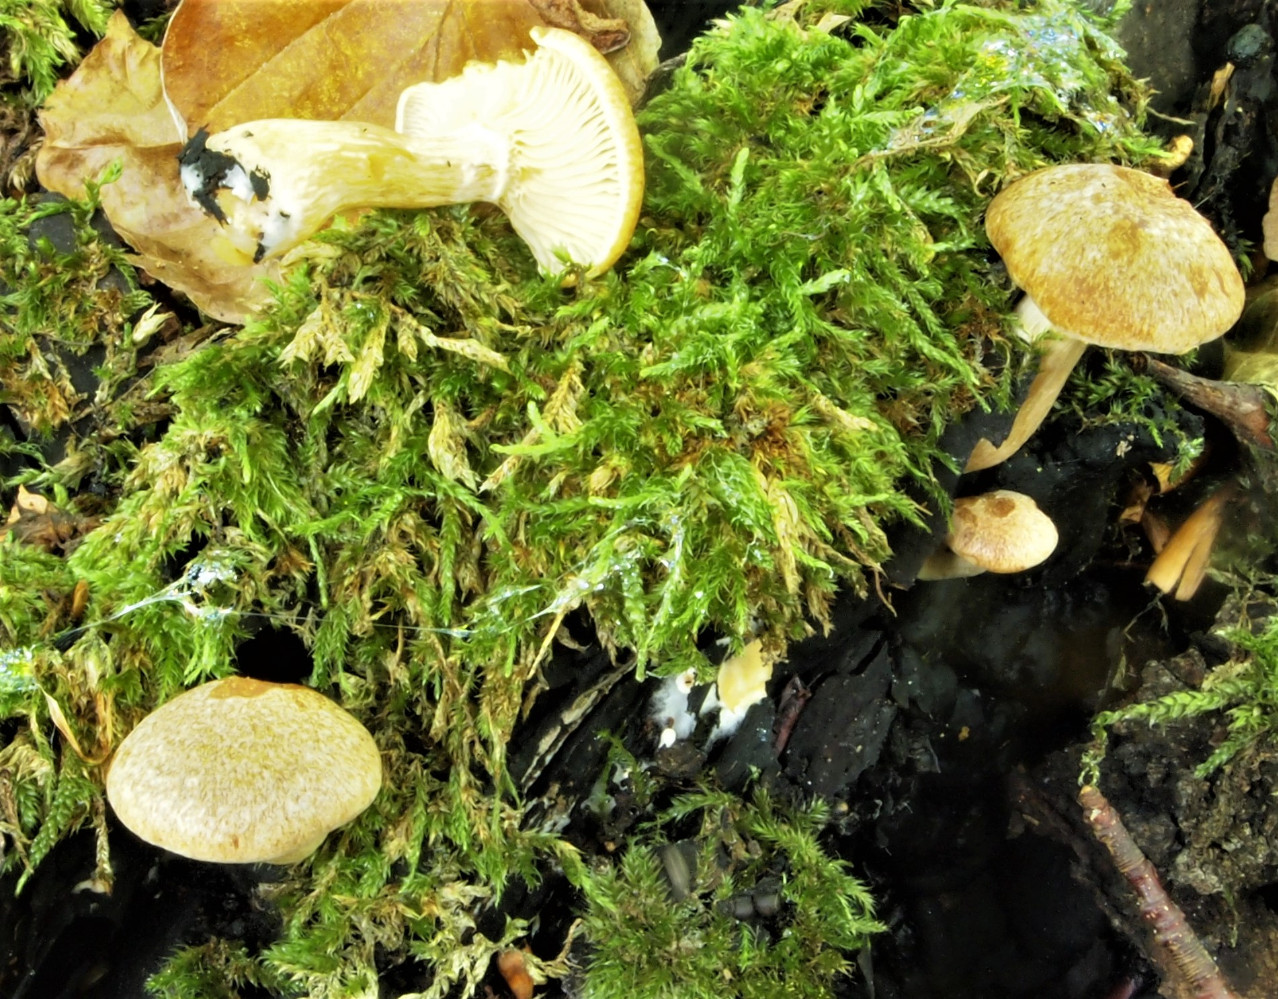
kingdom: Fungi
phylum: Basidiomycota
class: Agaricomycetes
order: Agaricales
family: Hymenogastraceae
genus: Gymnopilus
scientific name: Gymnopilus penetrans
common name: plettet flammehat
